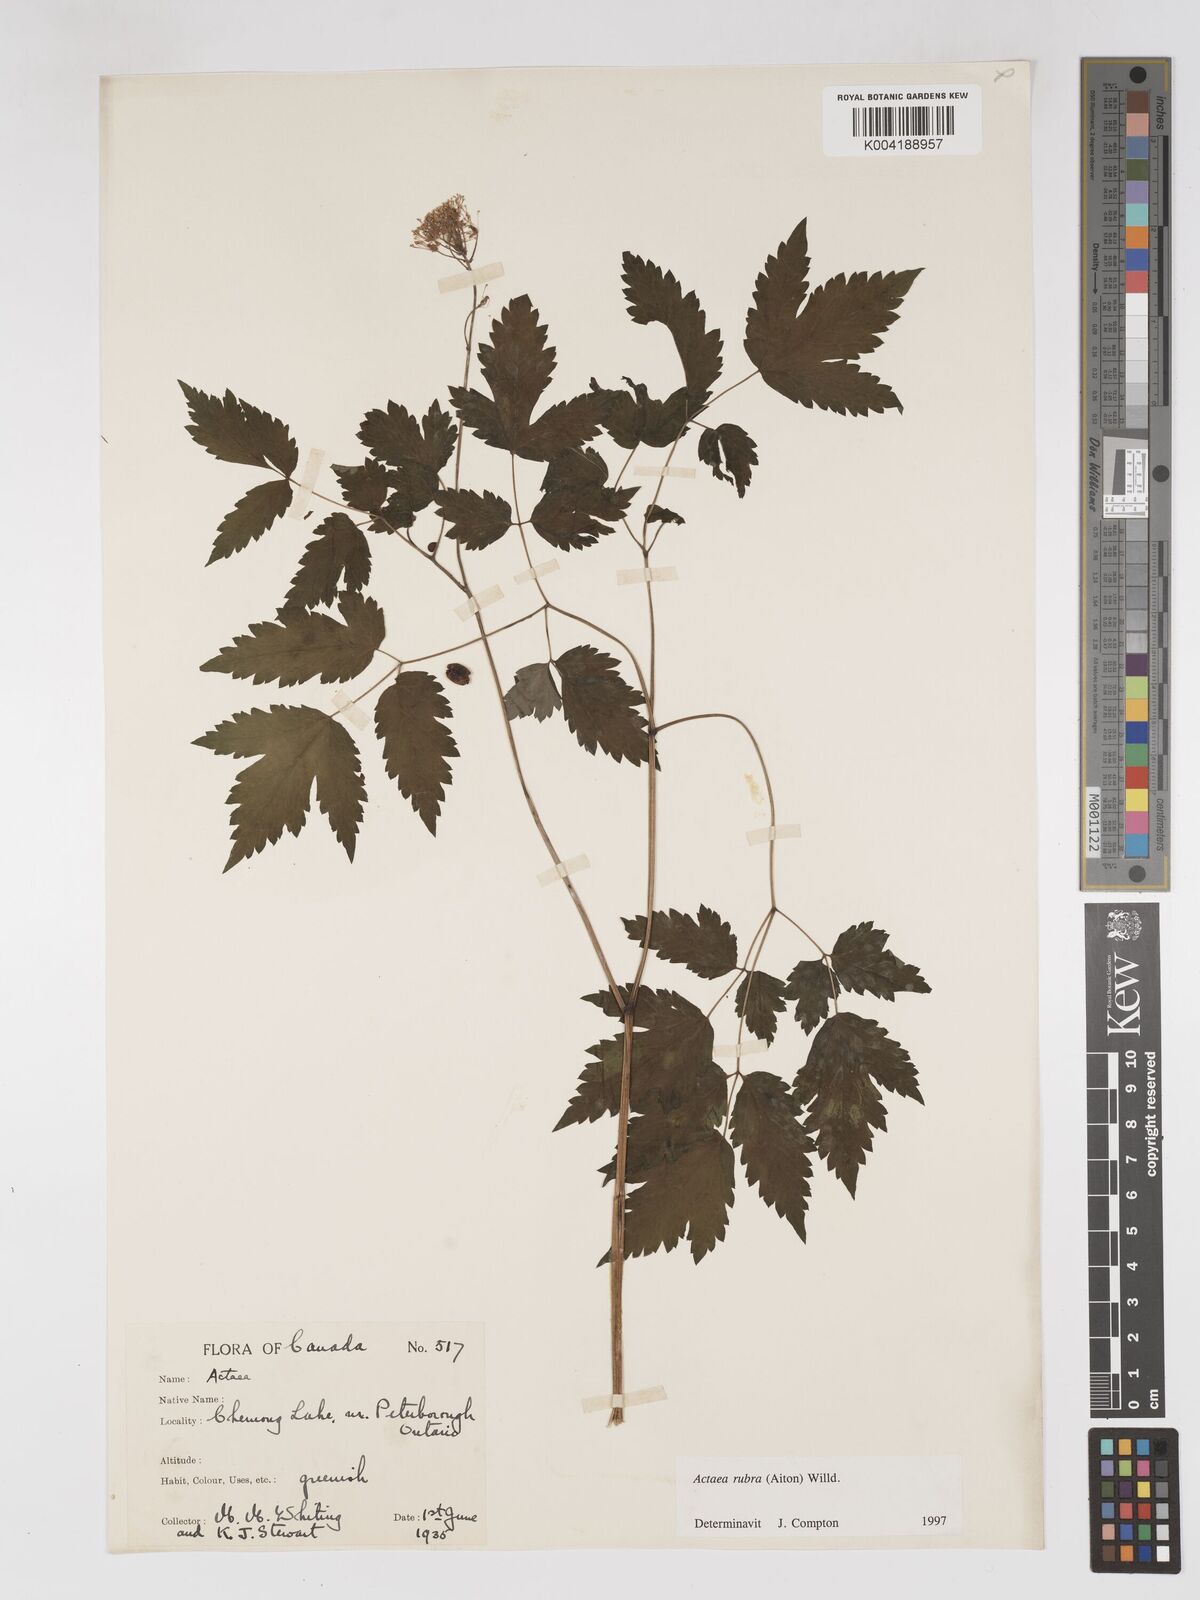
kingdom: Plantae
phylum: Tracheophyta
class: Magnoliopsida
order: Ranunculales
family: Ranunculaceae
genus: Actaea
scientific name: Actaea rubra
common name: Red baneberry
